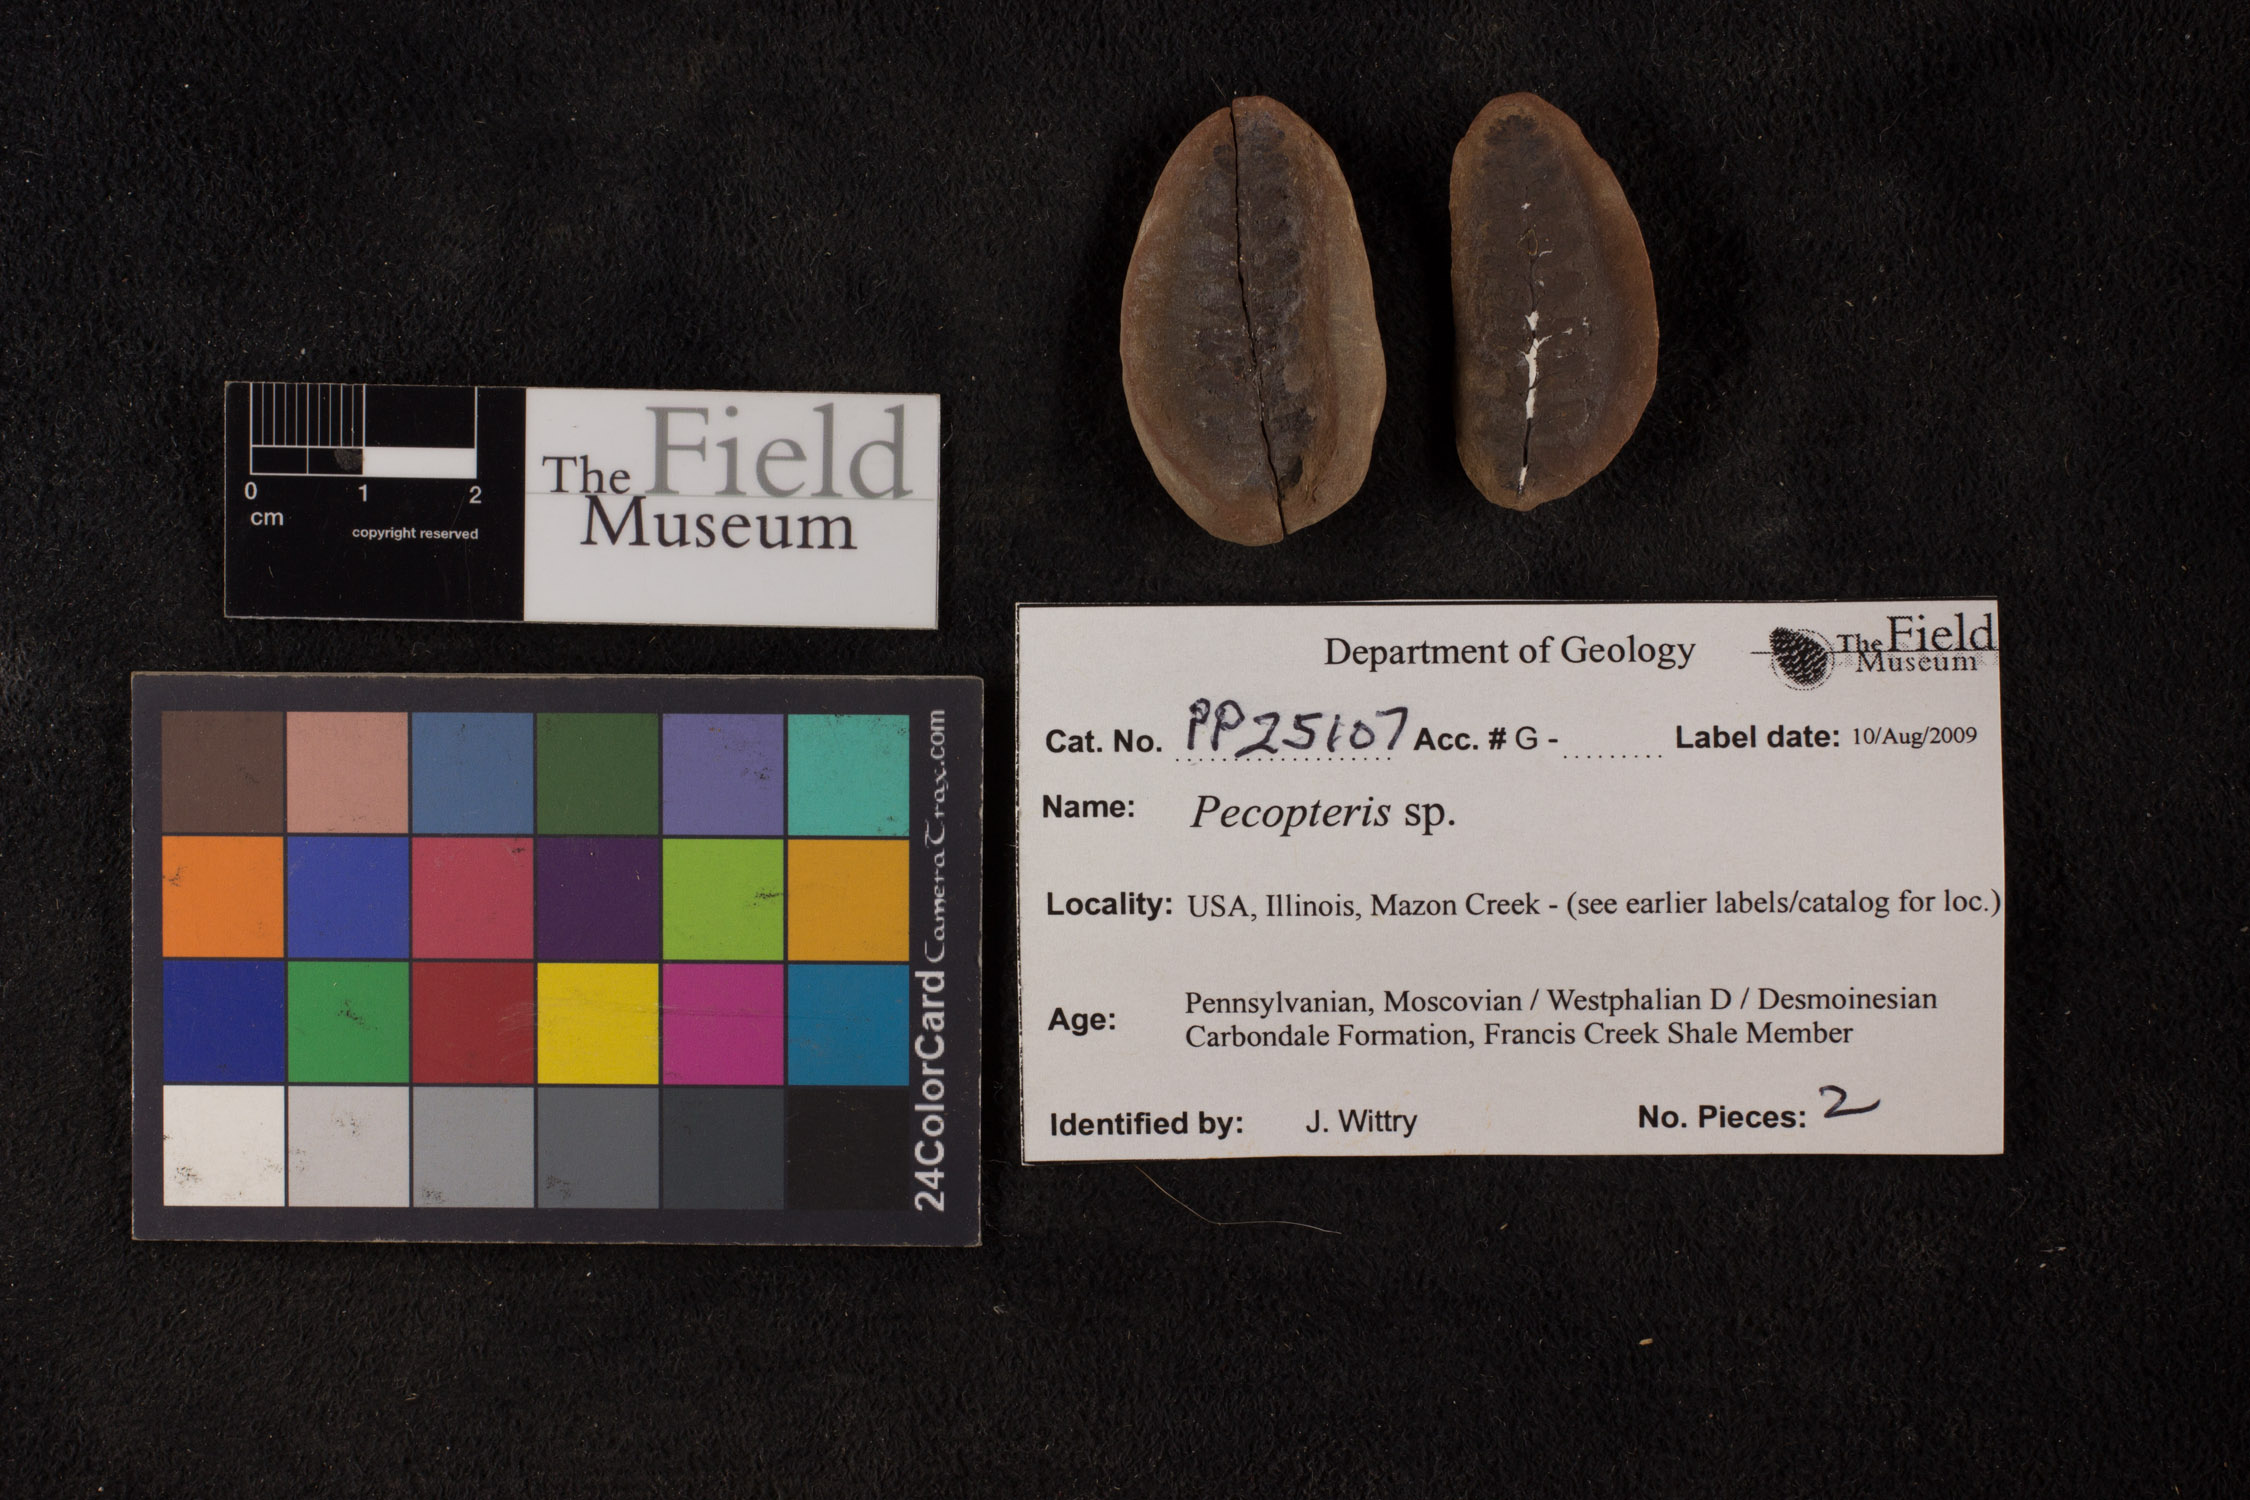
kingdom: Plantae
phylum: Tracheophyta
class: Polypodiopsida
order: Marattiales
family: Asterothecaceae
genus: Pecopteris
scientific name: Pecopteris
